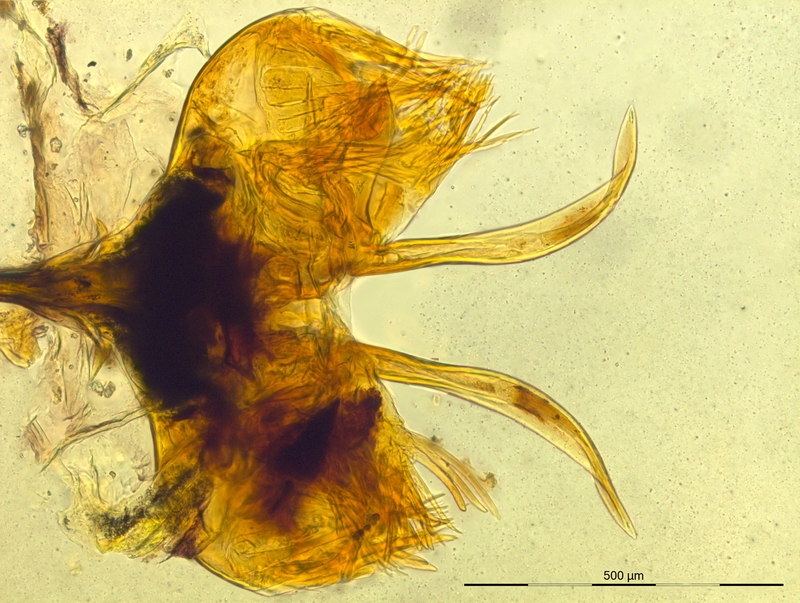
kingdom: Animalia
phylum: Arthropoda
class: Diplopoda
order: Chordeumatida
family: Craspedosomatidae
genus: Prionosoma
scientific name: Prionosoma canestrinii
